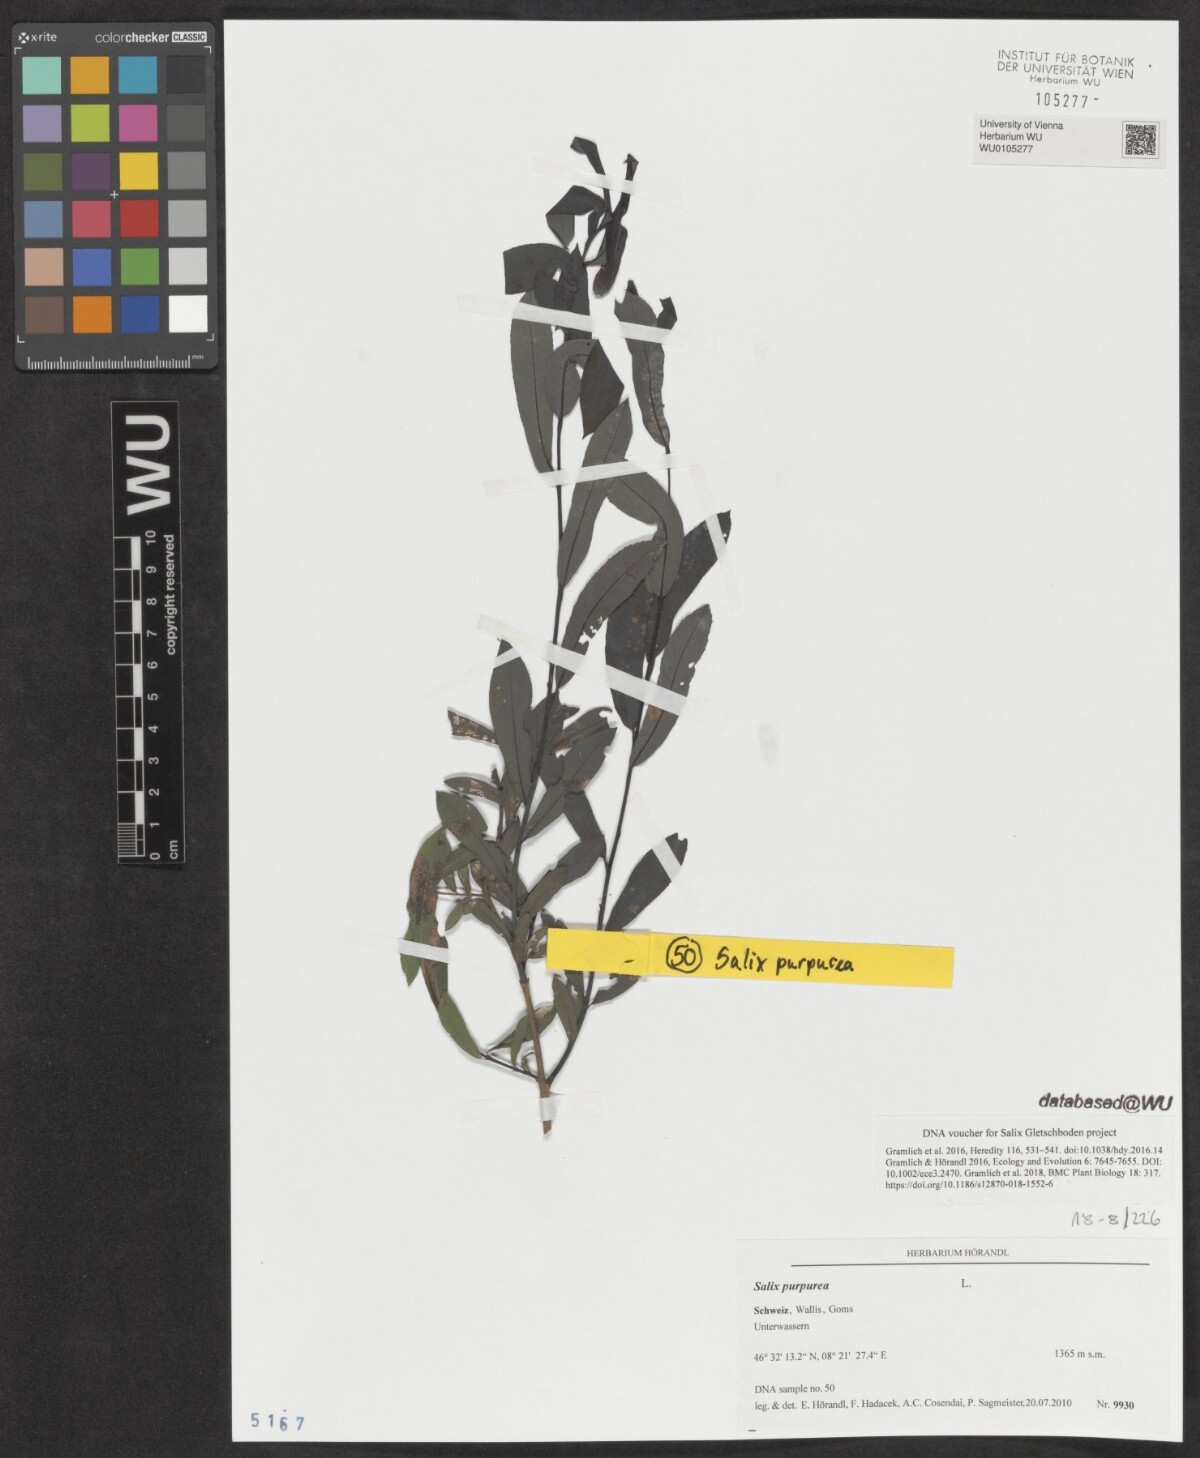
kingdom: Plantae
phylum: Tracheophyta
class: Magnoliopsida
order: Malpighiales
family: Salicaceae
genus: Salix
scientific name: Salix purpurea
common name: Purple willow
